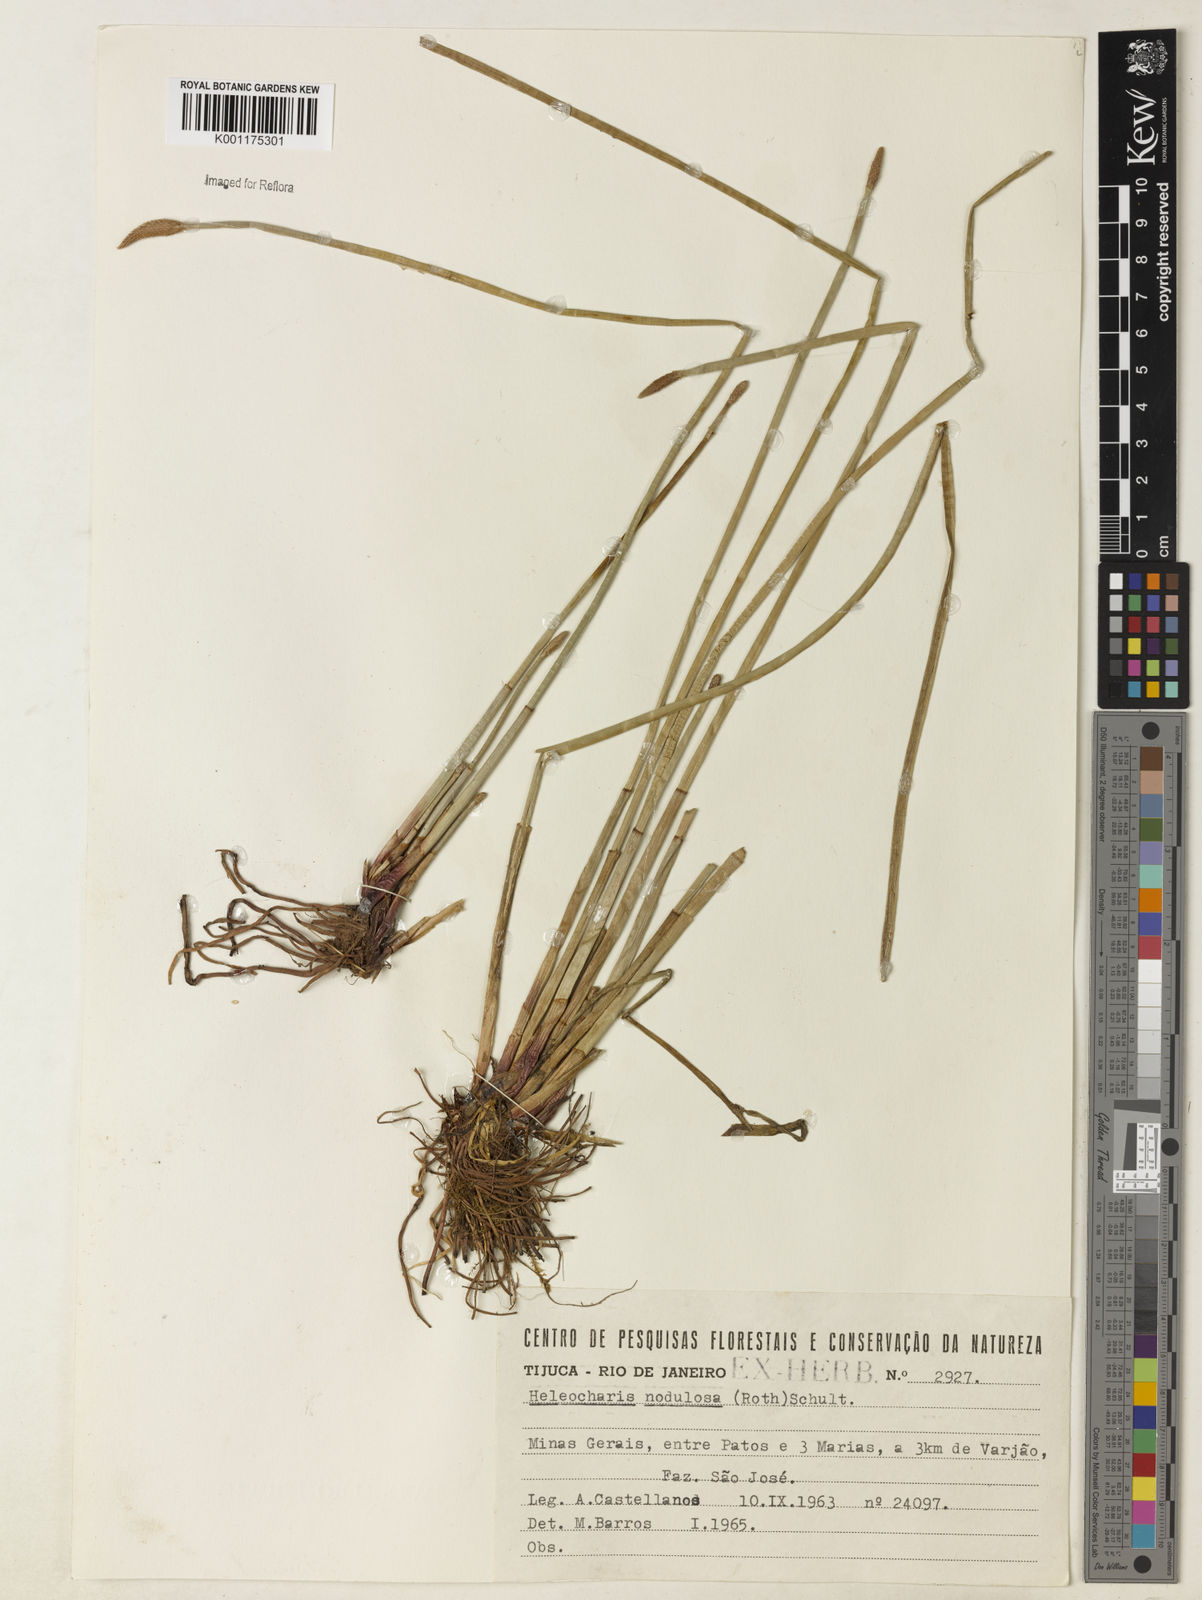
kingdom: Plantae
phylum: Tracheophyta
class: Liliopsida
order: Poales
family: Cyperaceae
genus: Eleocharis
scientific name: Eleocharis montana
